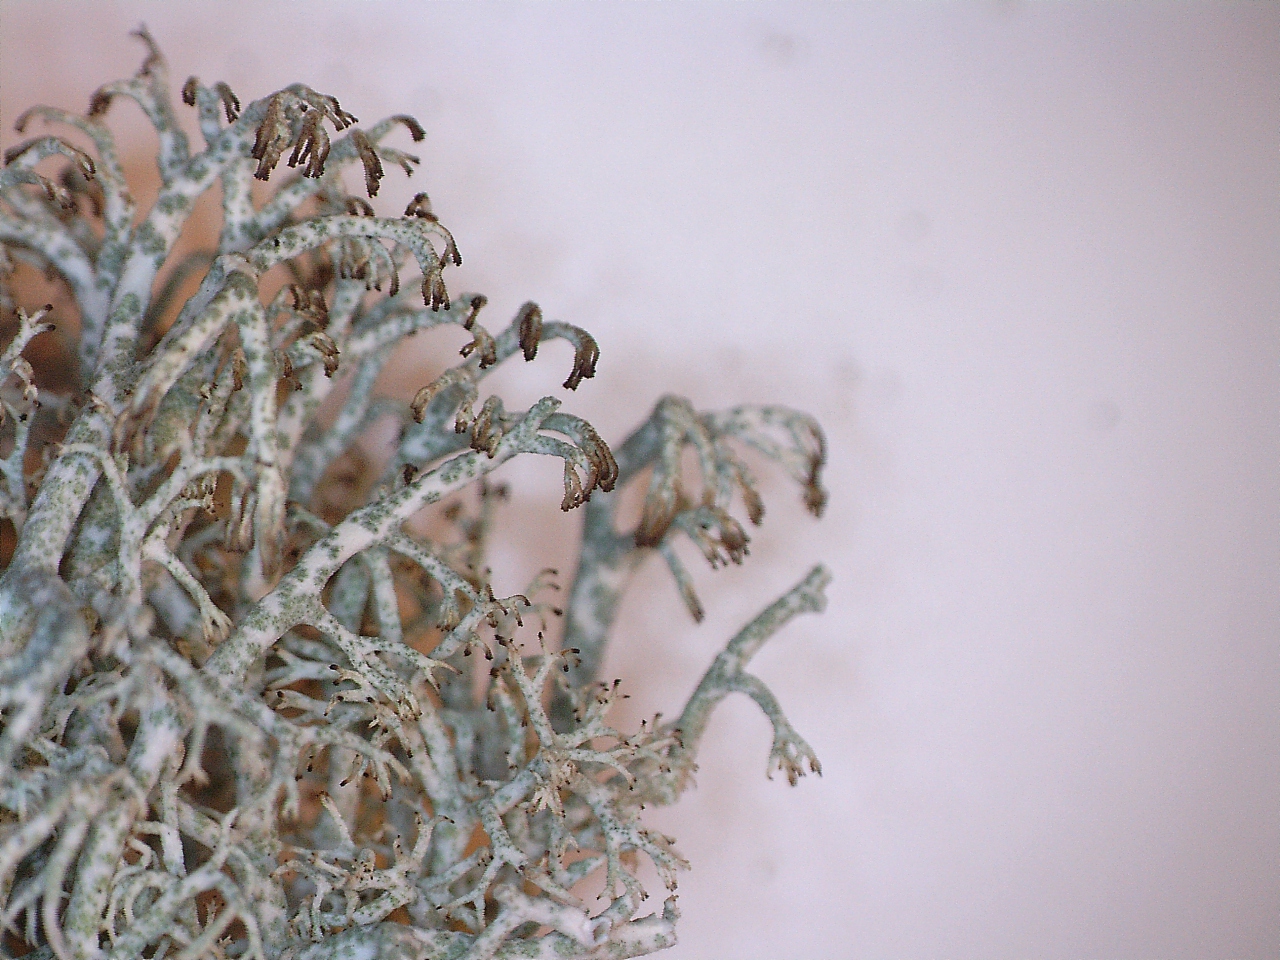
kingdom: Fungi
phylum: Ascomycota
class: Lecanoromycetes
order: Lecanorales
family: Cladoniaceae
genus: Cladonia
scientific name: Cladonia ciliata
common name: spinkel rensdyrlav
